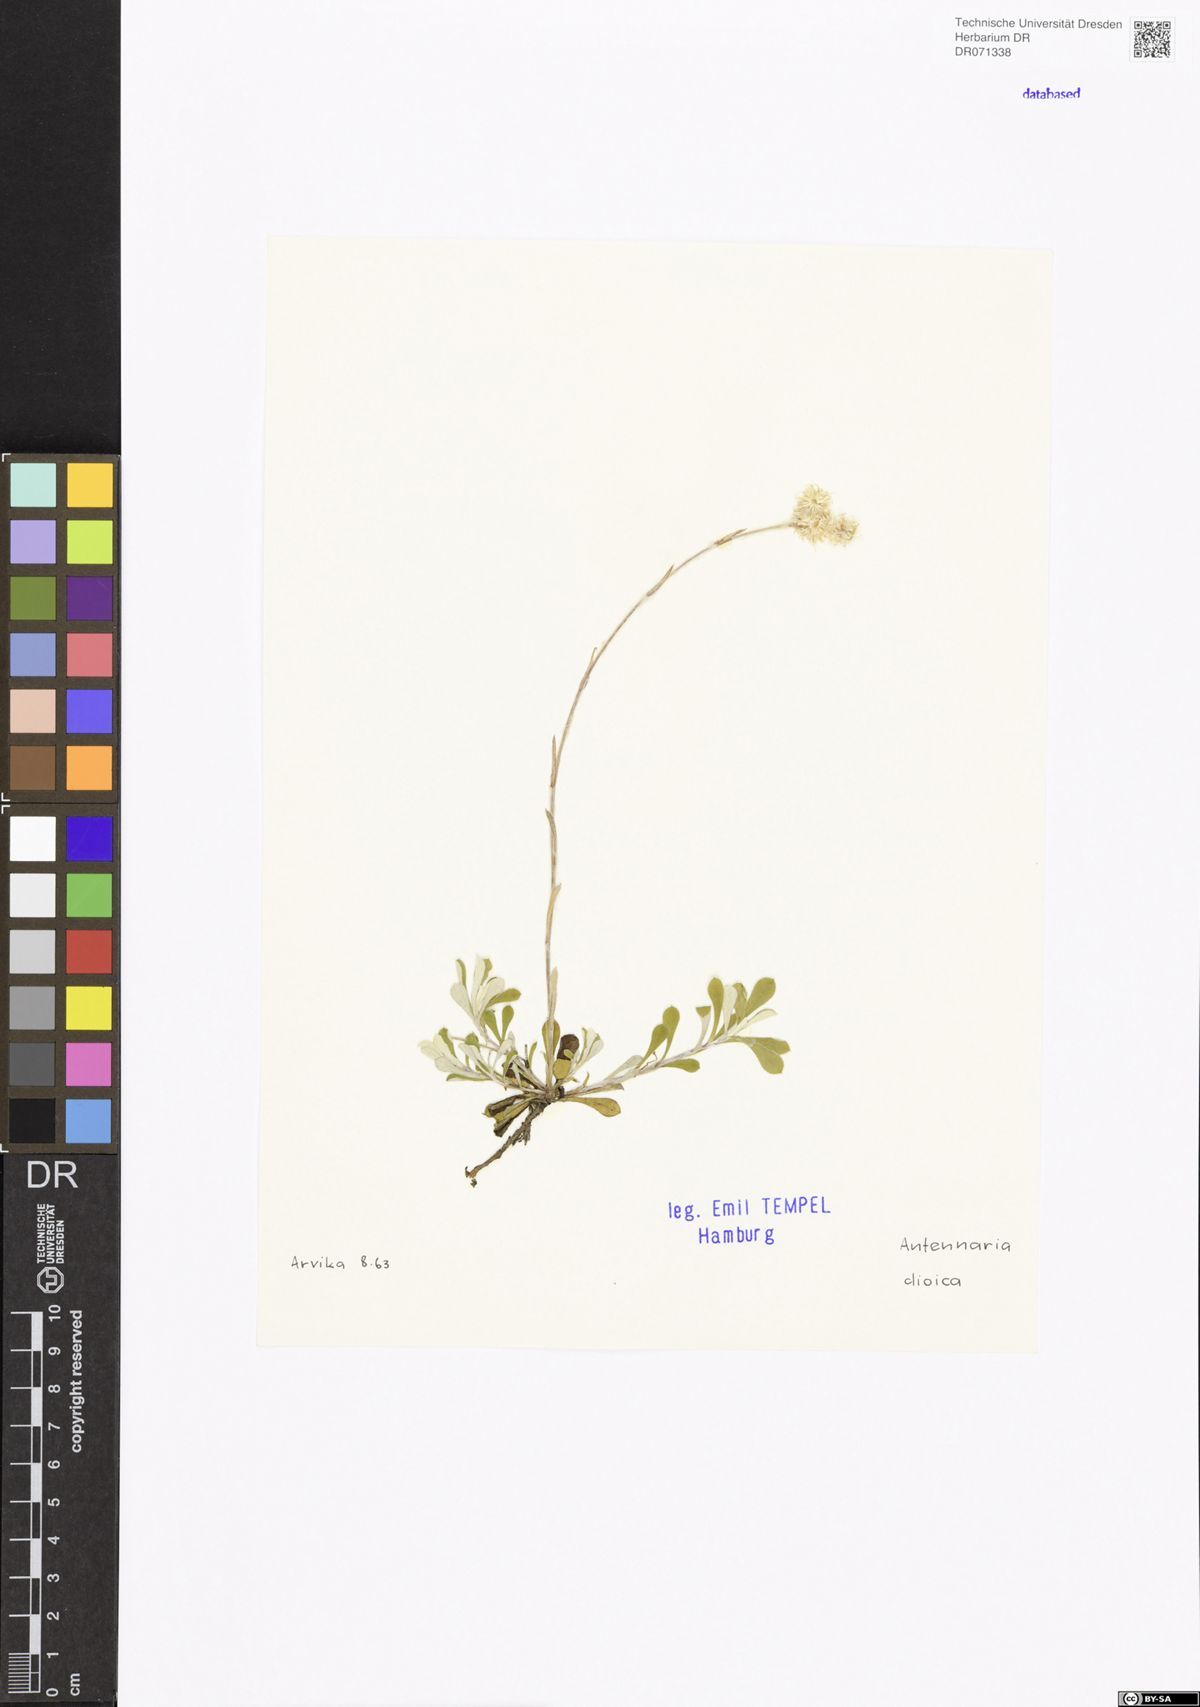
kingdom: Plantae
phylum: Tracheophyta
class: Magnoliopsida
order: Asterales
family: Asteraceae
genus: Antennaria
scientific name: Antennaria dioica
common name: Mountain everlasting
